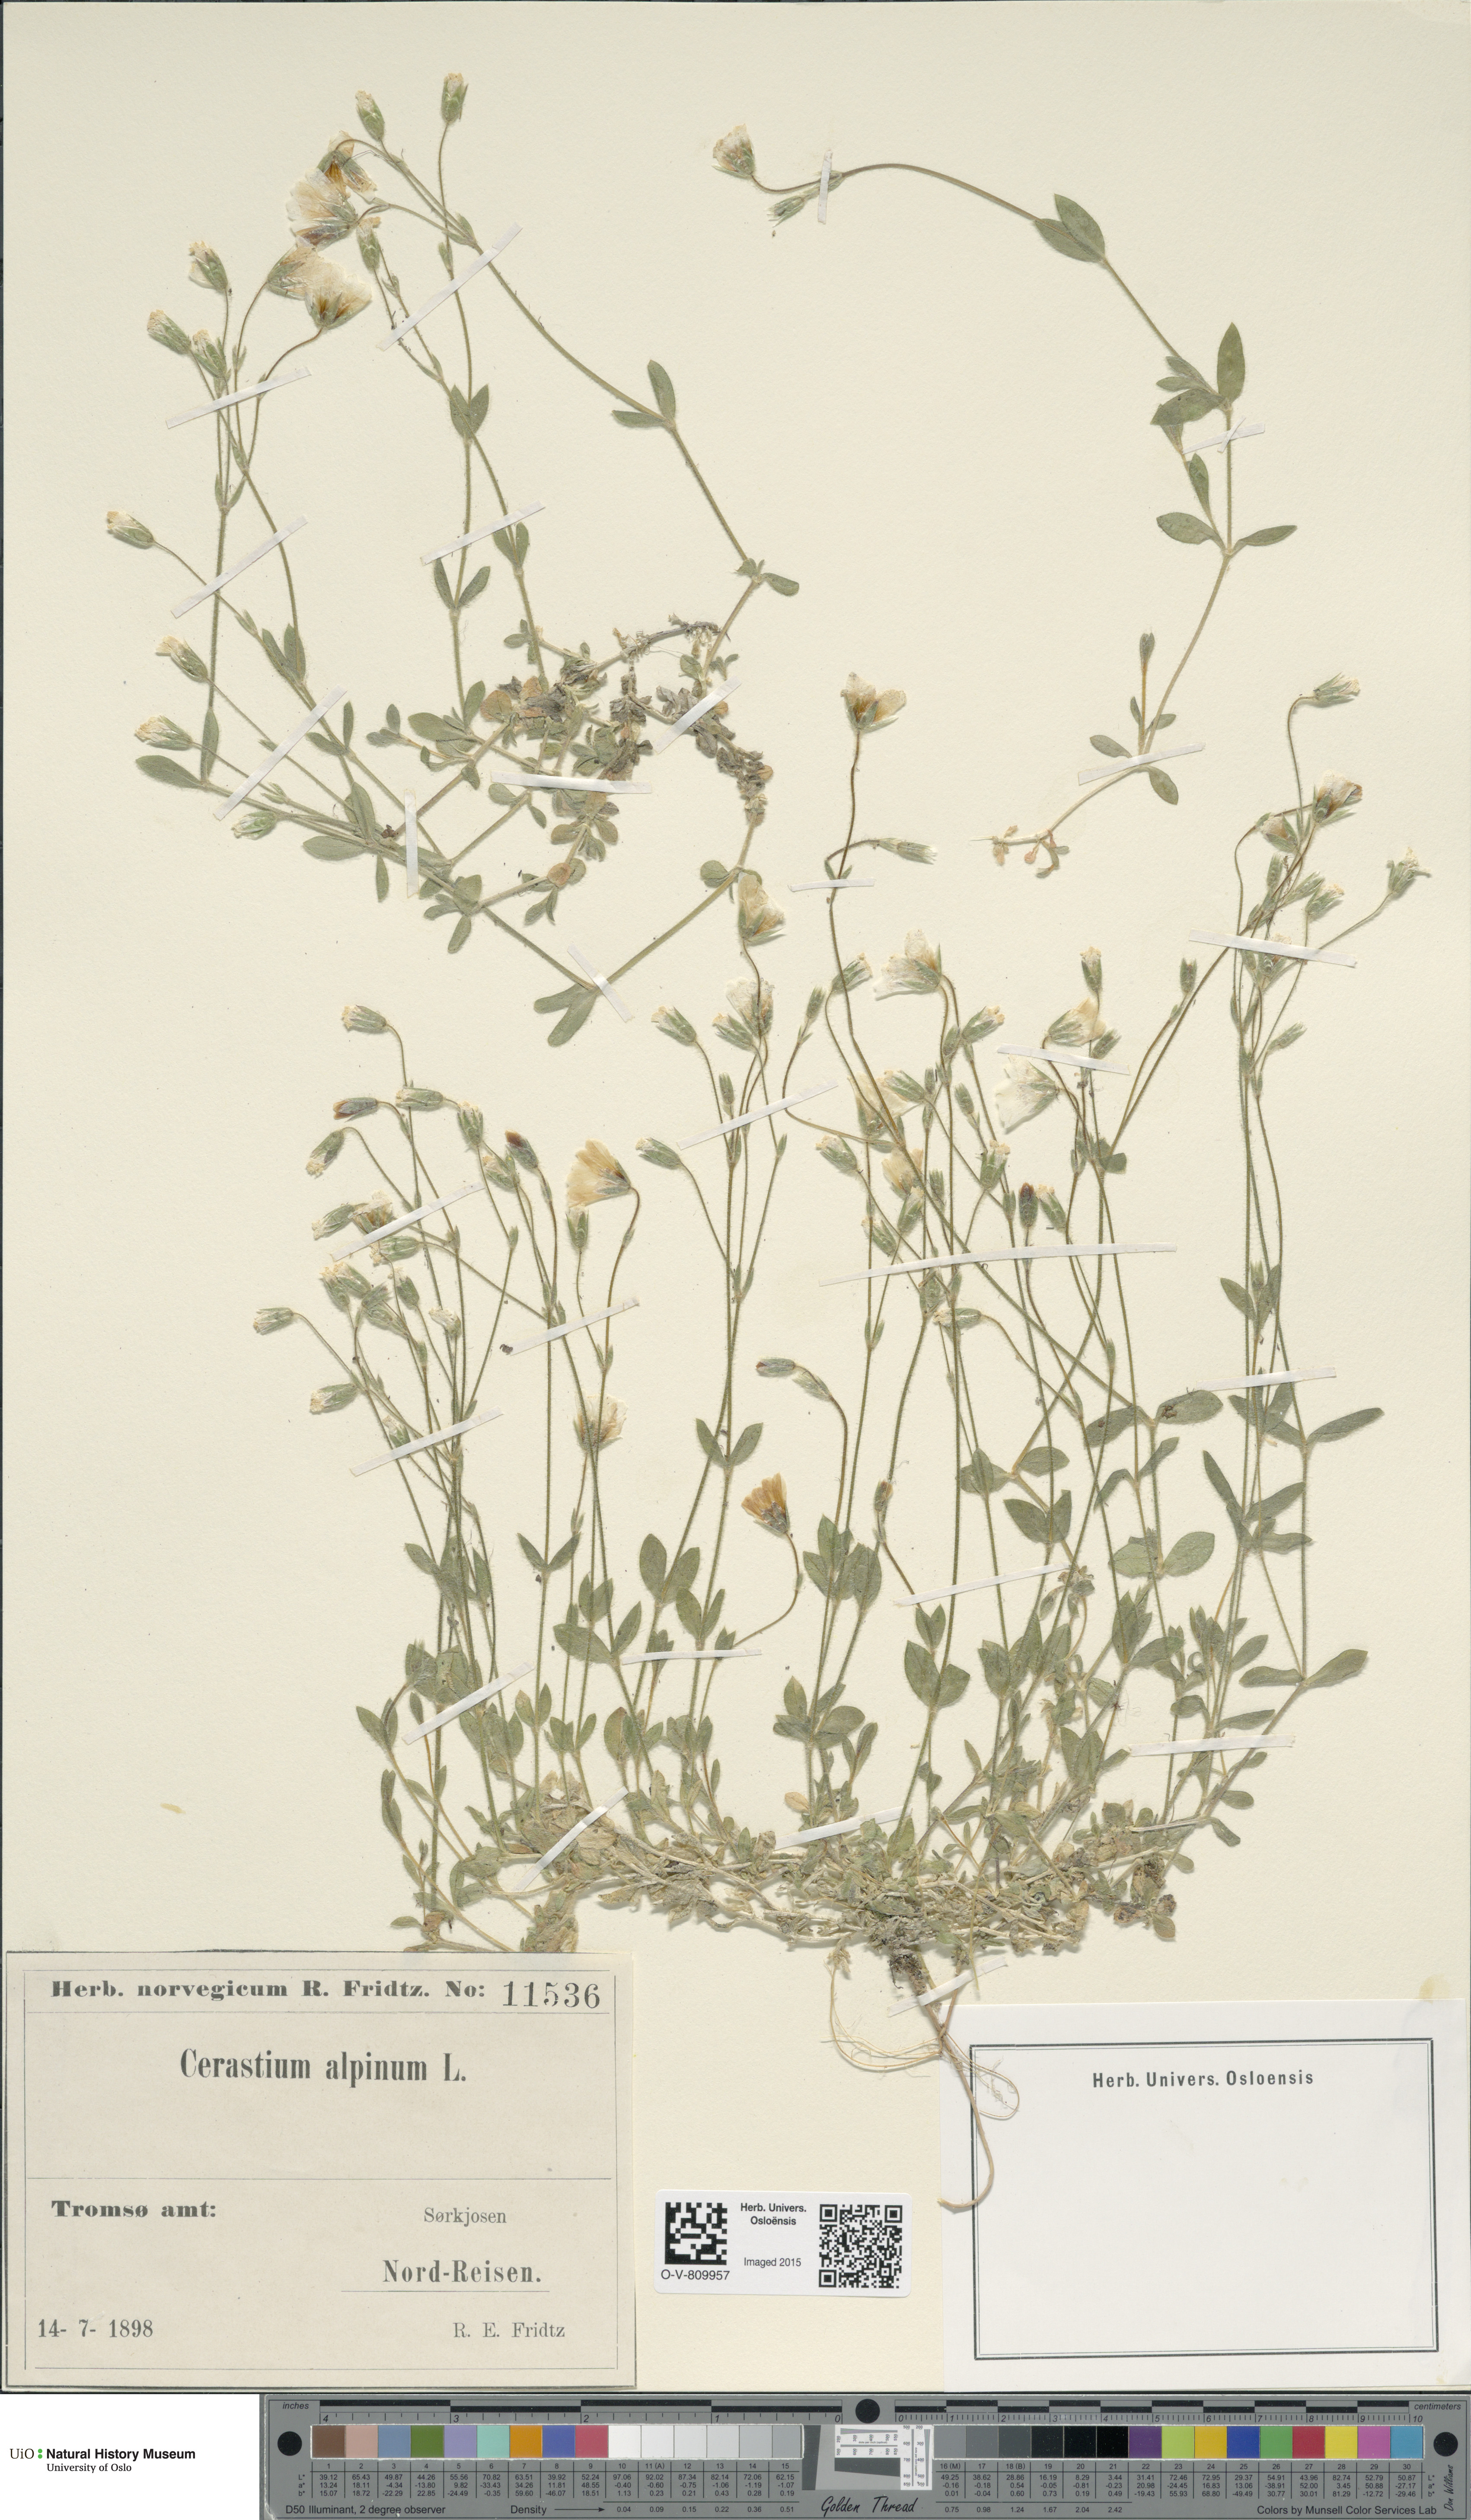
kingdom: Plantae
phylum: Tracheophyta
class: Magnoliopsida
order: Caryophyllales
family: Caryophyllaceae
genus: Cerastium
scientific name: Cerastium alpinum
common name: Alpine mouse-ear
